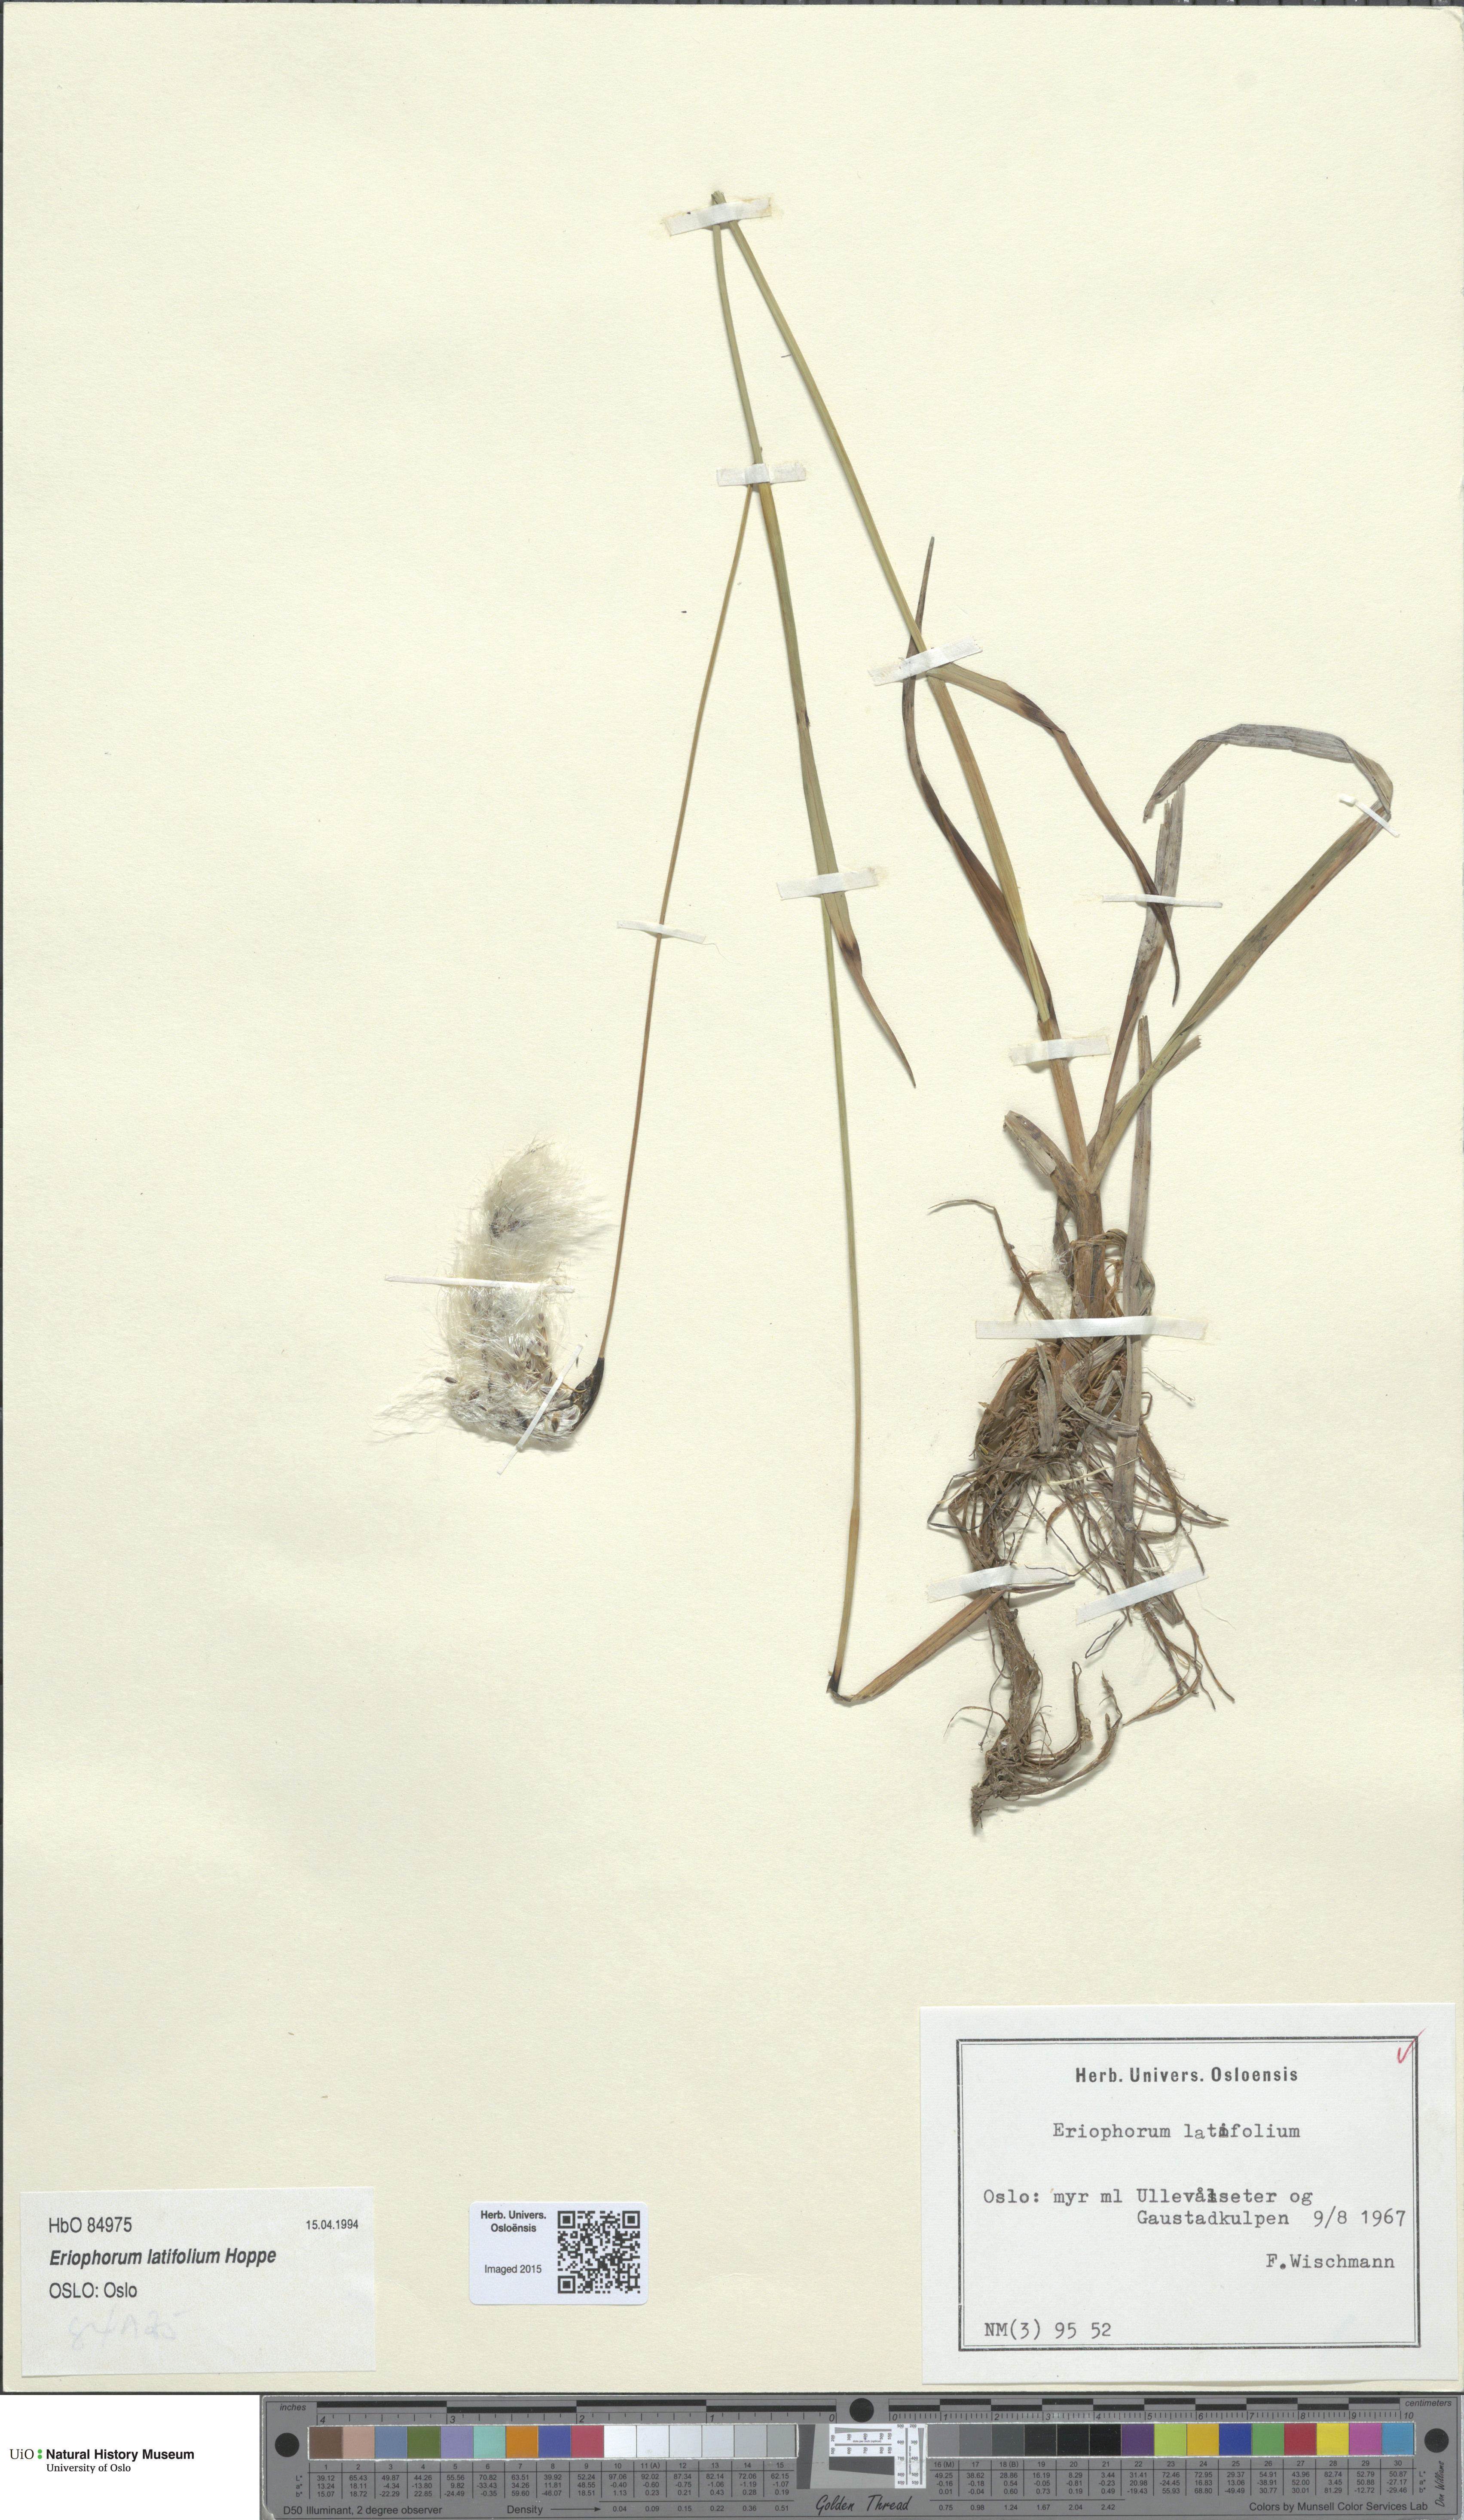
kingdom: Plantae
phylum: Tracheophyta
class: Liliopsida
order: Poales
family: Cyperaceae
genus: Eriophorum
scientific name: Eriophorum latifolium
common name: Broad-leaved cottongrass
